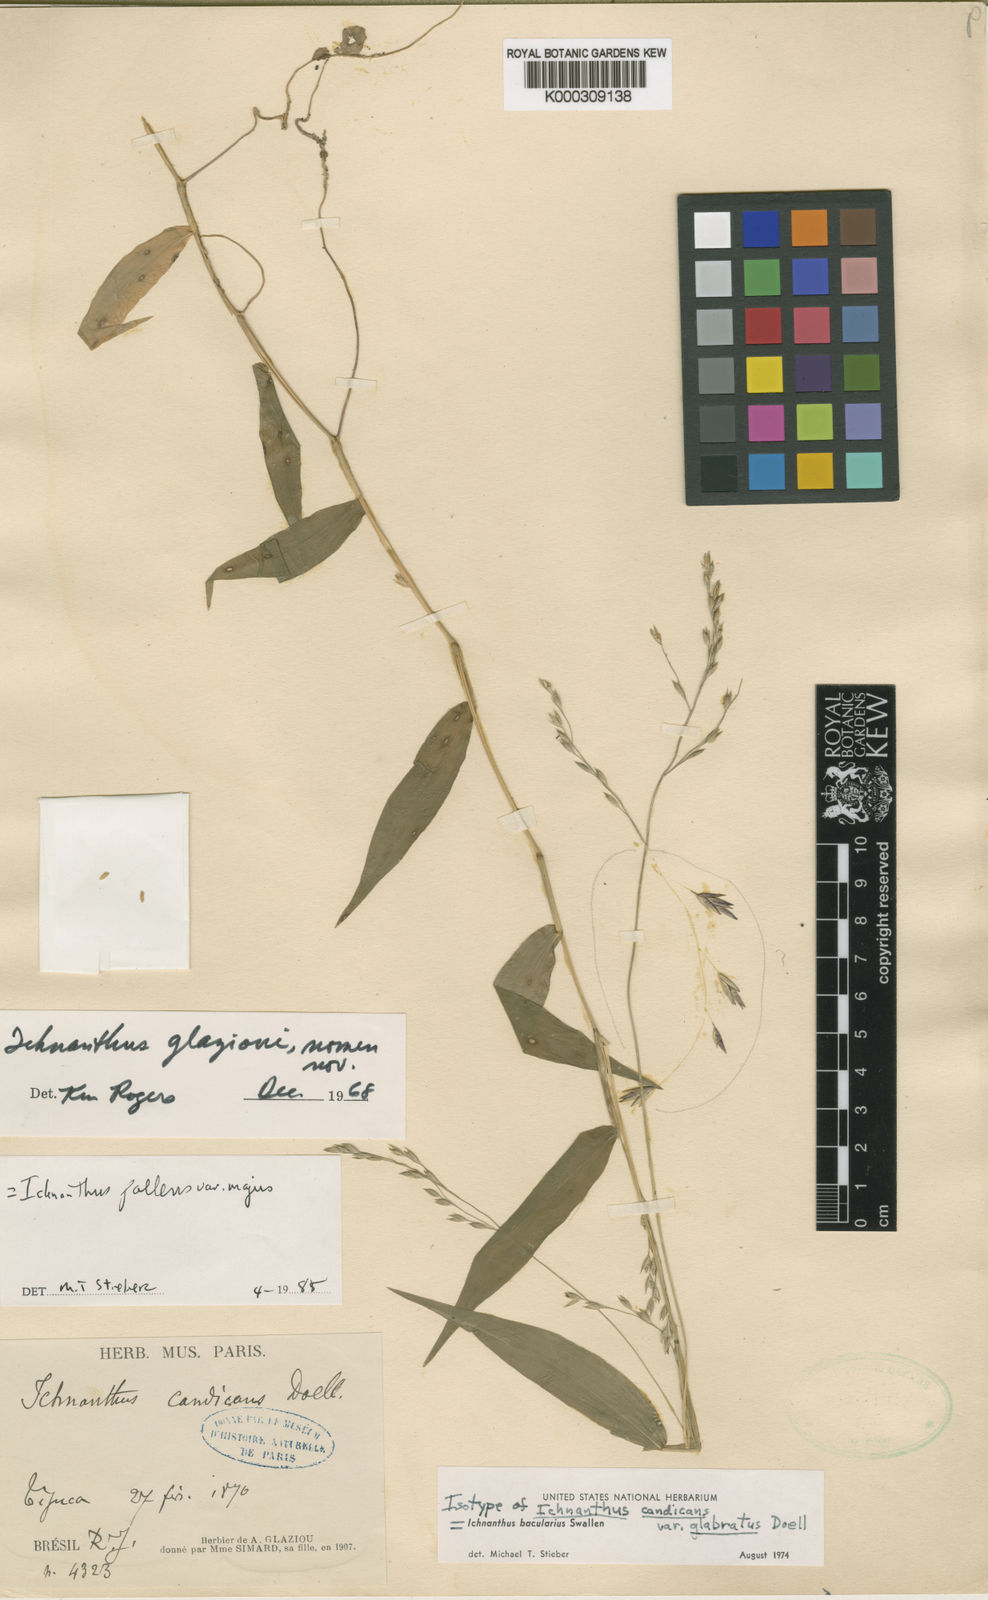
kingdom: Plantae
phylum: Tracheophyta
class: Liliopsida
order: Poales
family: Poaceae
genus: Ichnanthus
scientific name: Ichnanthus pallens
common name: Water grass
